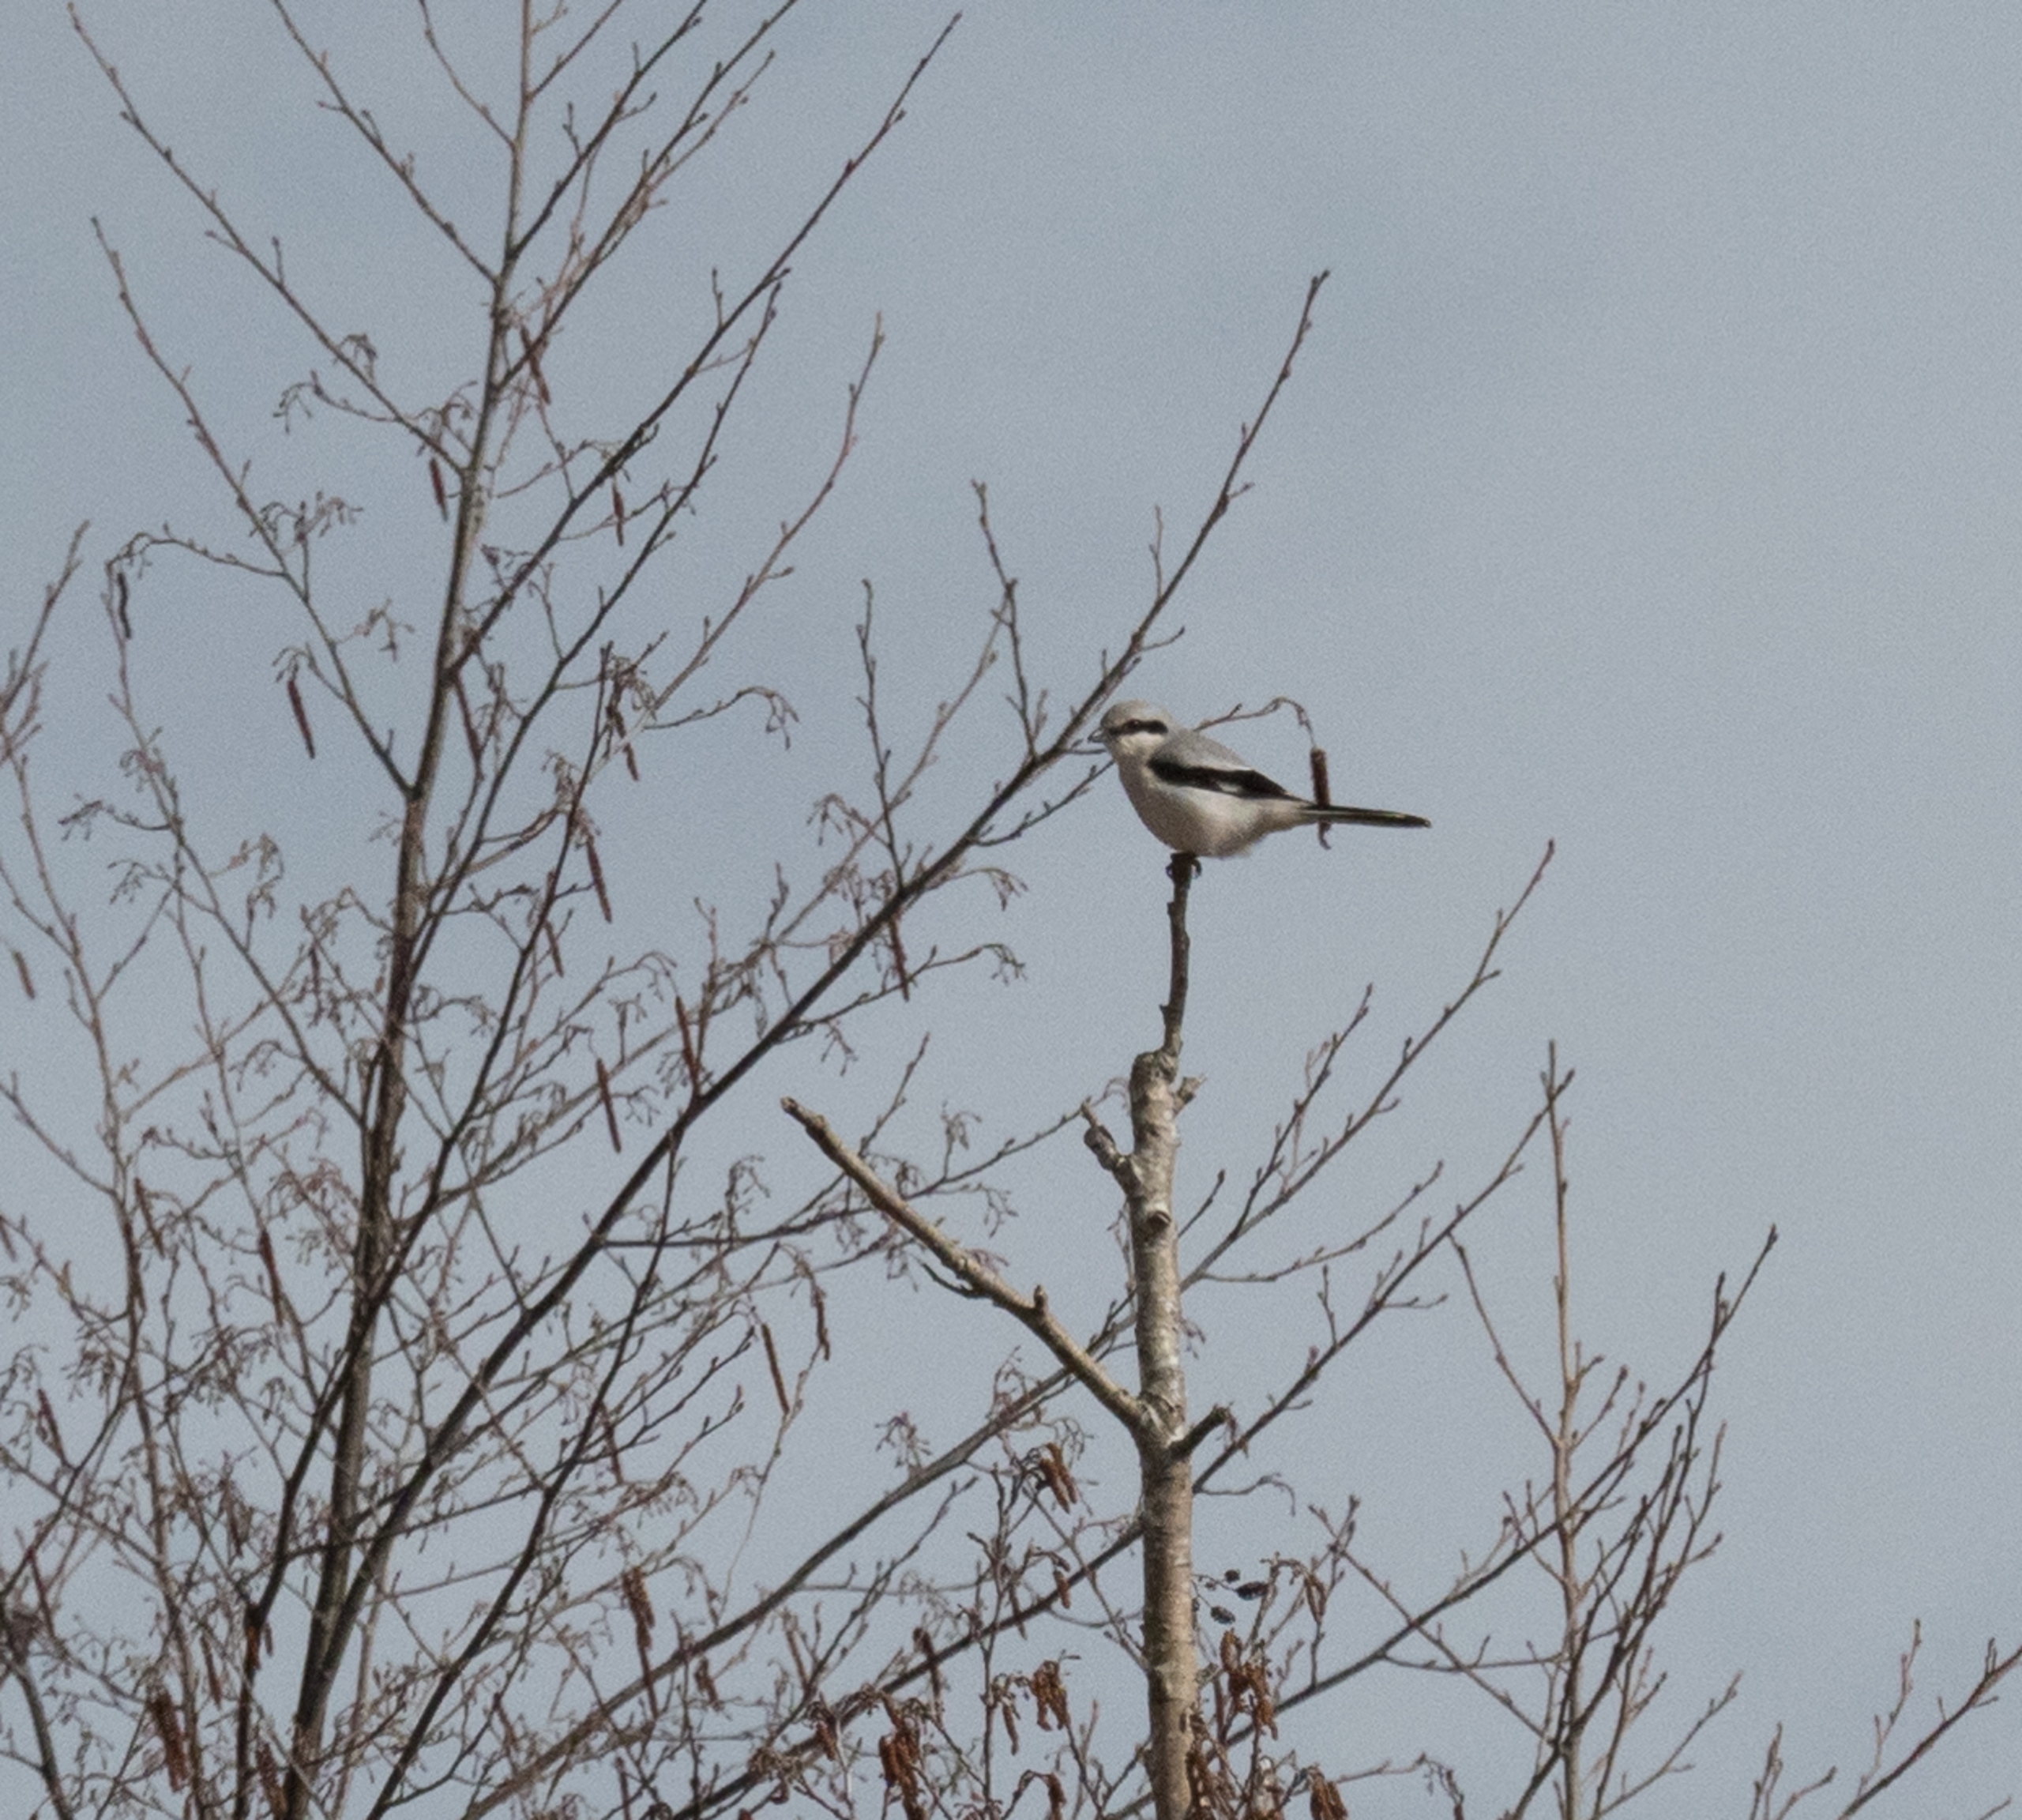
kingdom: Animalia
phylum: Chordata
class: Aves
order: Passeriformes
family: Laniidae
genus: Lanius
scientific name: Lanius excubitor
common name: Stor tornskade
